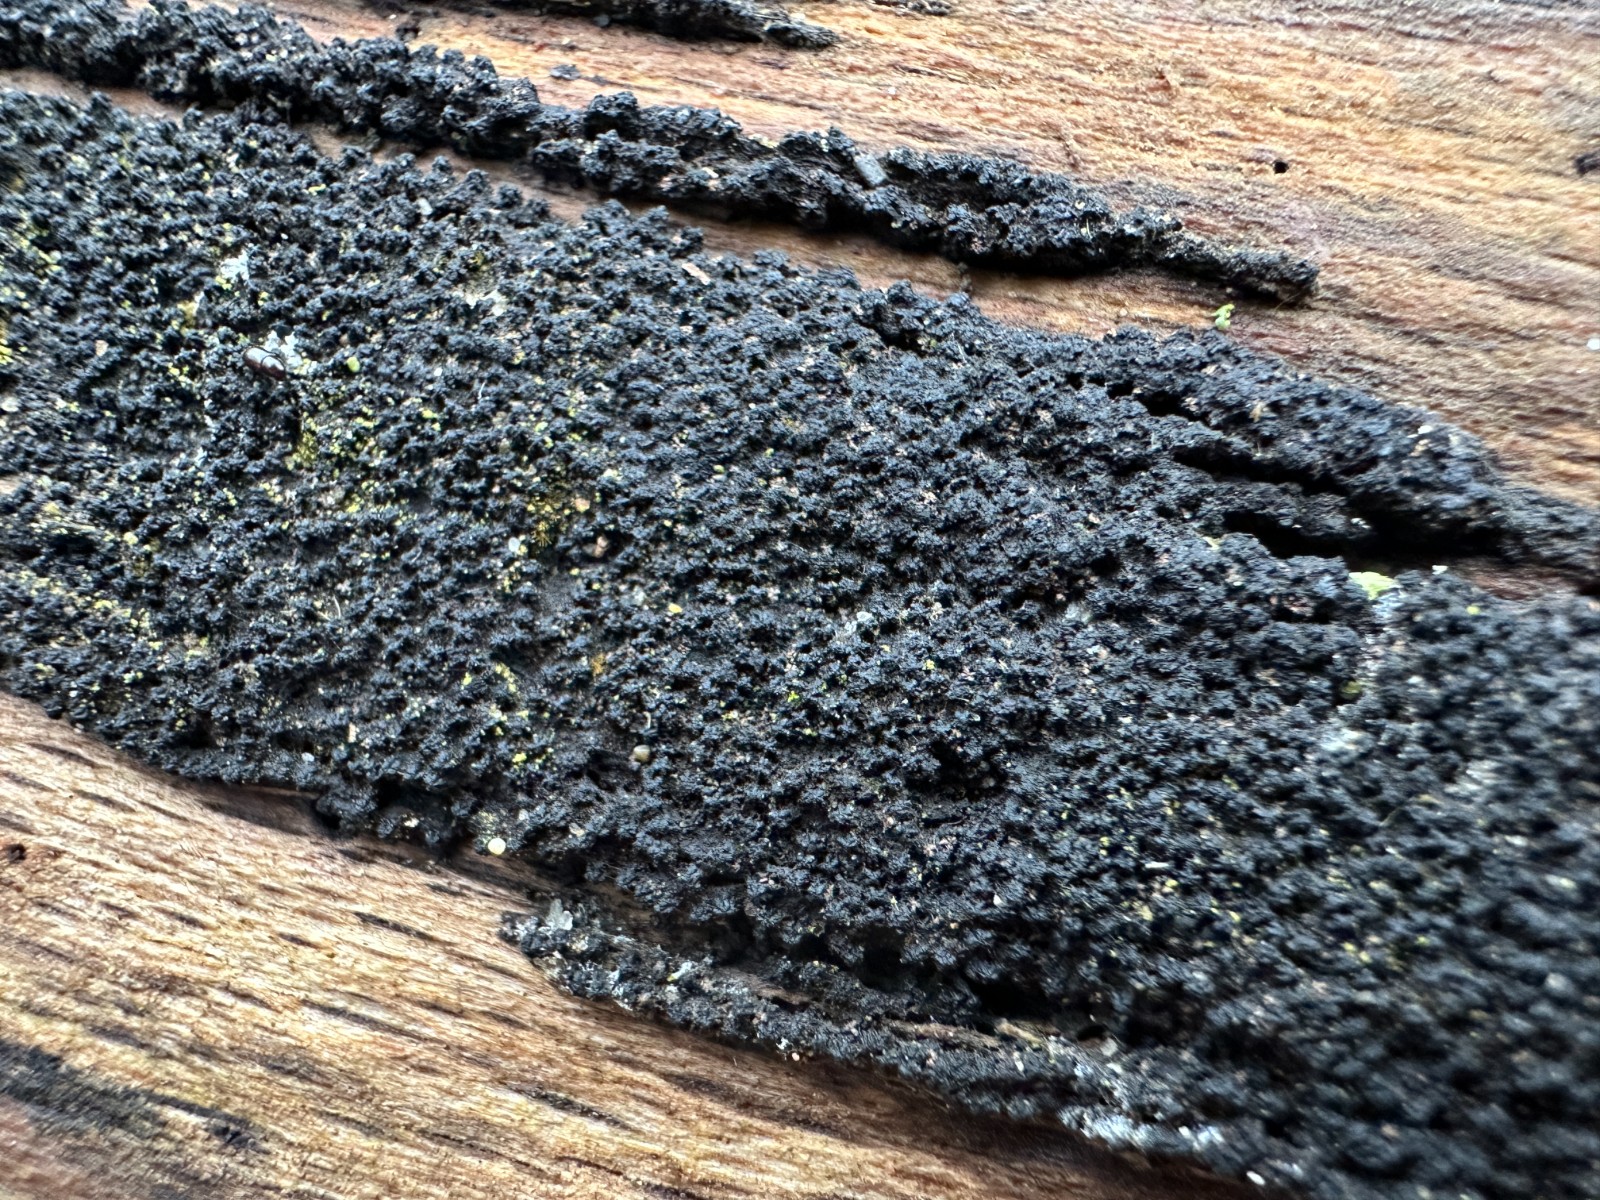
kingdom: Fungi
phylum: Ascomycota
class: Sordariomycetes
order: Xylariales
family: Diatrypaceae
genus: Eutypa
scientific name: Eutypa spinosa
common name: grov kulskorpe
